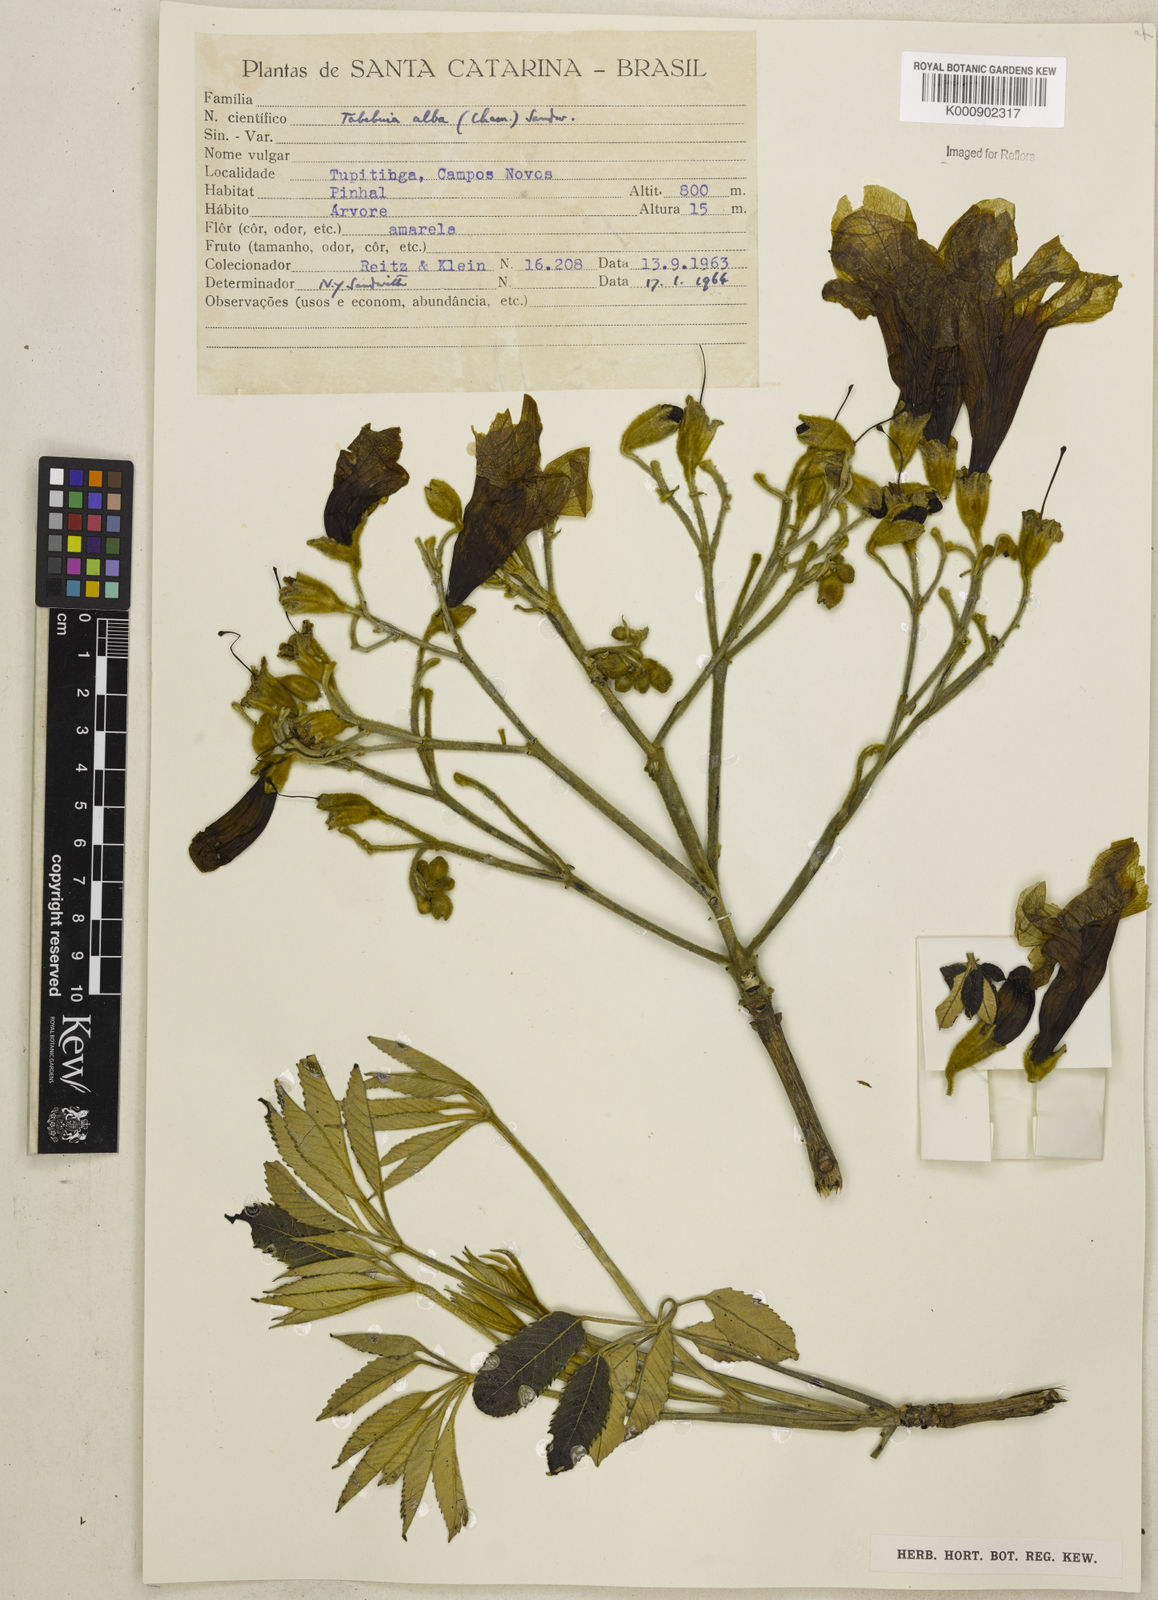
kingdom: Plantae
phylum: Tracheophyta
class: Magnoliopsida
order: Lamiales
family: Bignoniaceae
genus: Handroanthus
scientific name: Handroanthus albus
